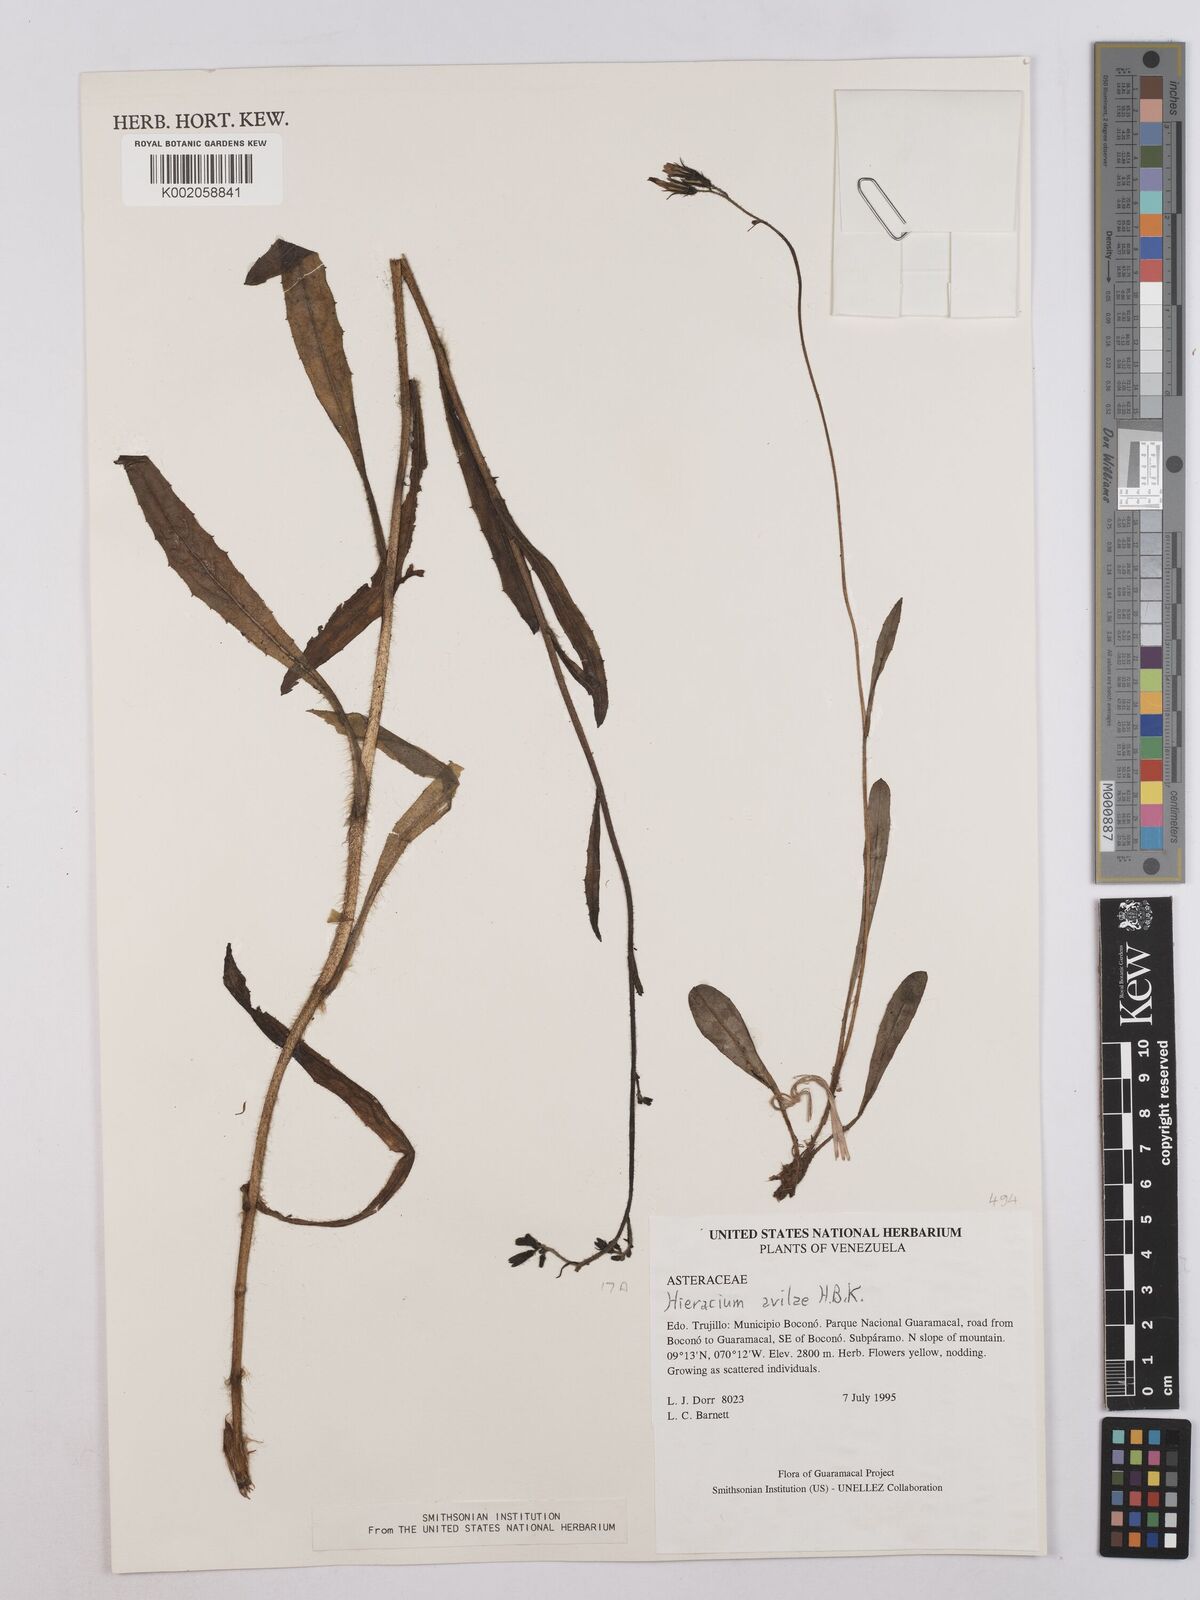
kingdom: Plantae
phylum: Tracheophyta
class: Magnoliopsida
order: Asterales
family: Asteraceae
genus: Hieracium
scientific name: Hieracium avilae
